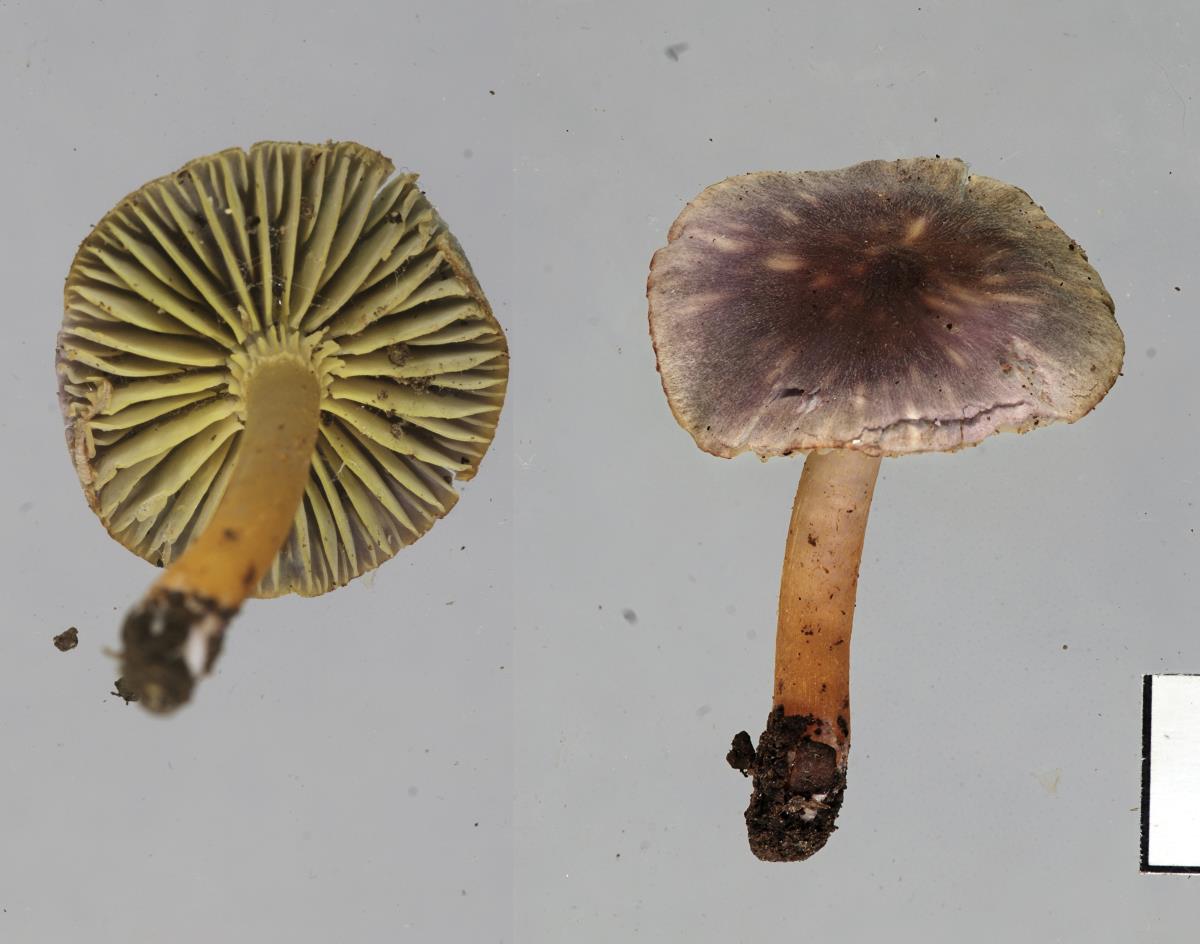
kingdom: Fungi
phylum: Basidiomycota
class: Agaricomycetes
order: Agaricales
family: Hygrophoraceae
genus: Humidicutis
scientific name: Humidicutis multicolor
